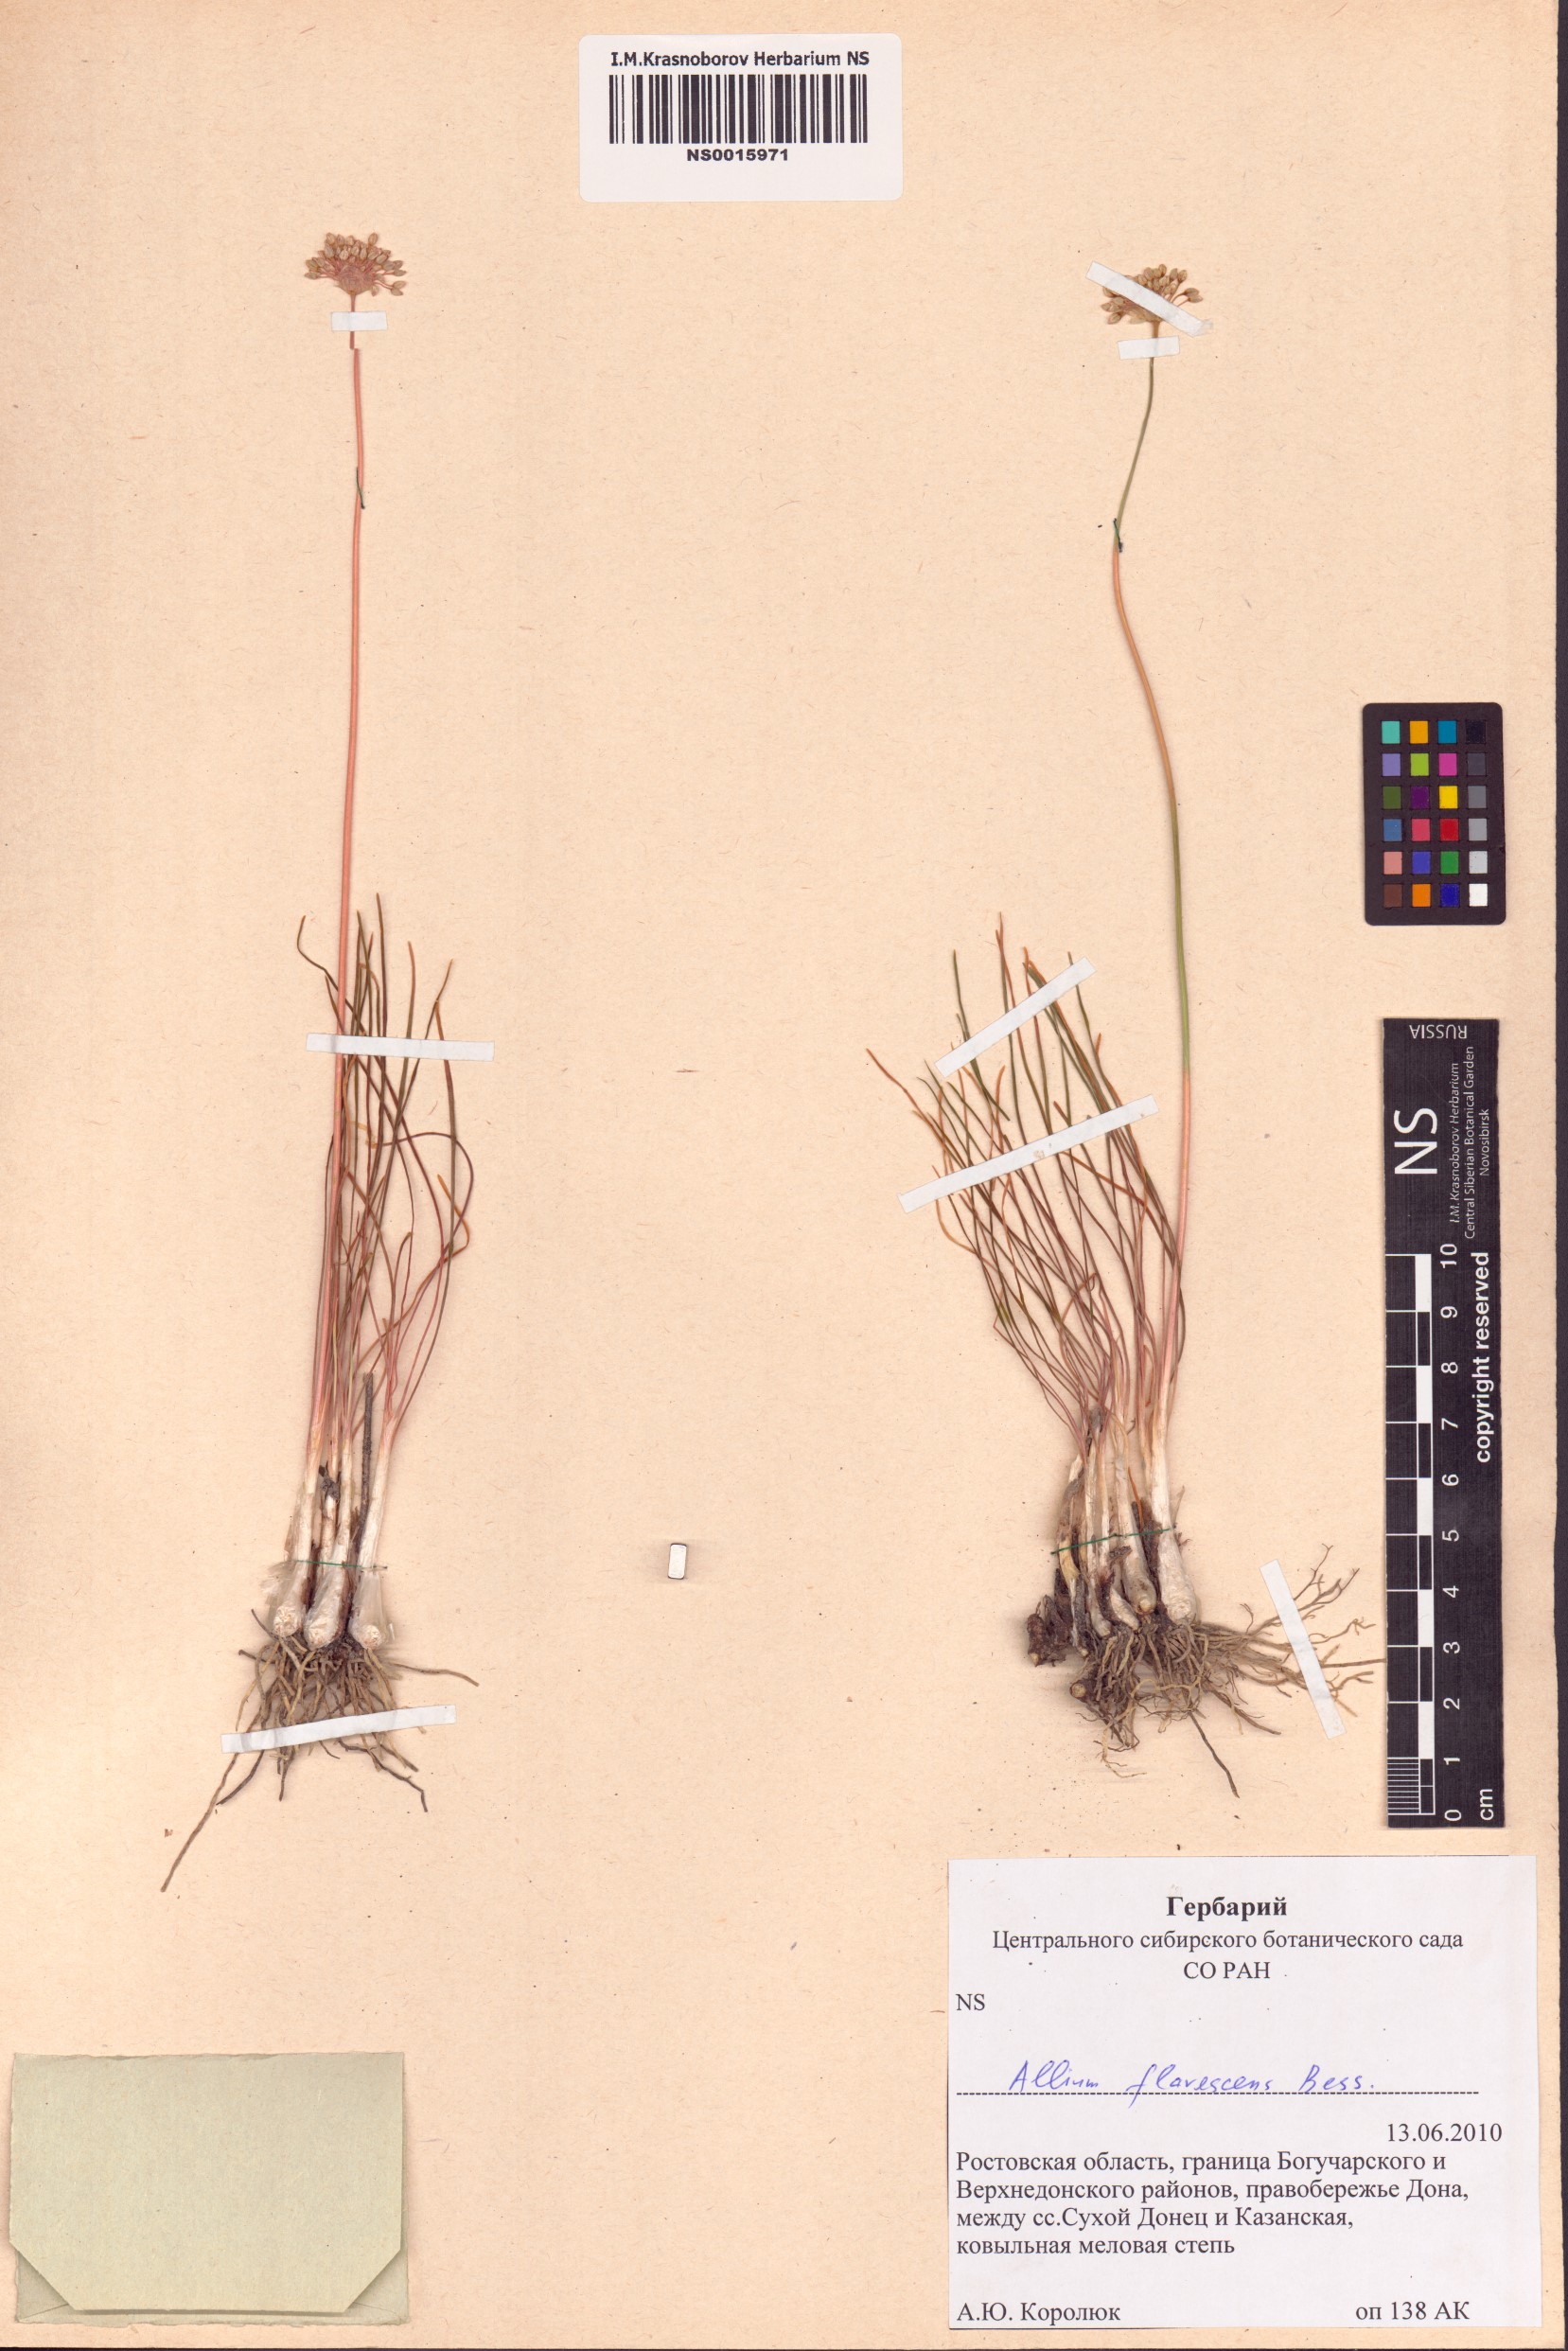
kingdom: Plantae
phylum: Tracheophyta
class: Liliopsida
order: Asparagales
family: Amaryllidaceae
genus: Allium
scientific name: Allium flavescens
